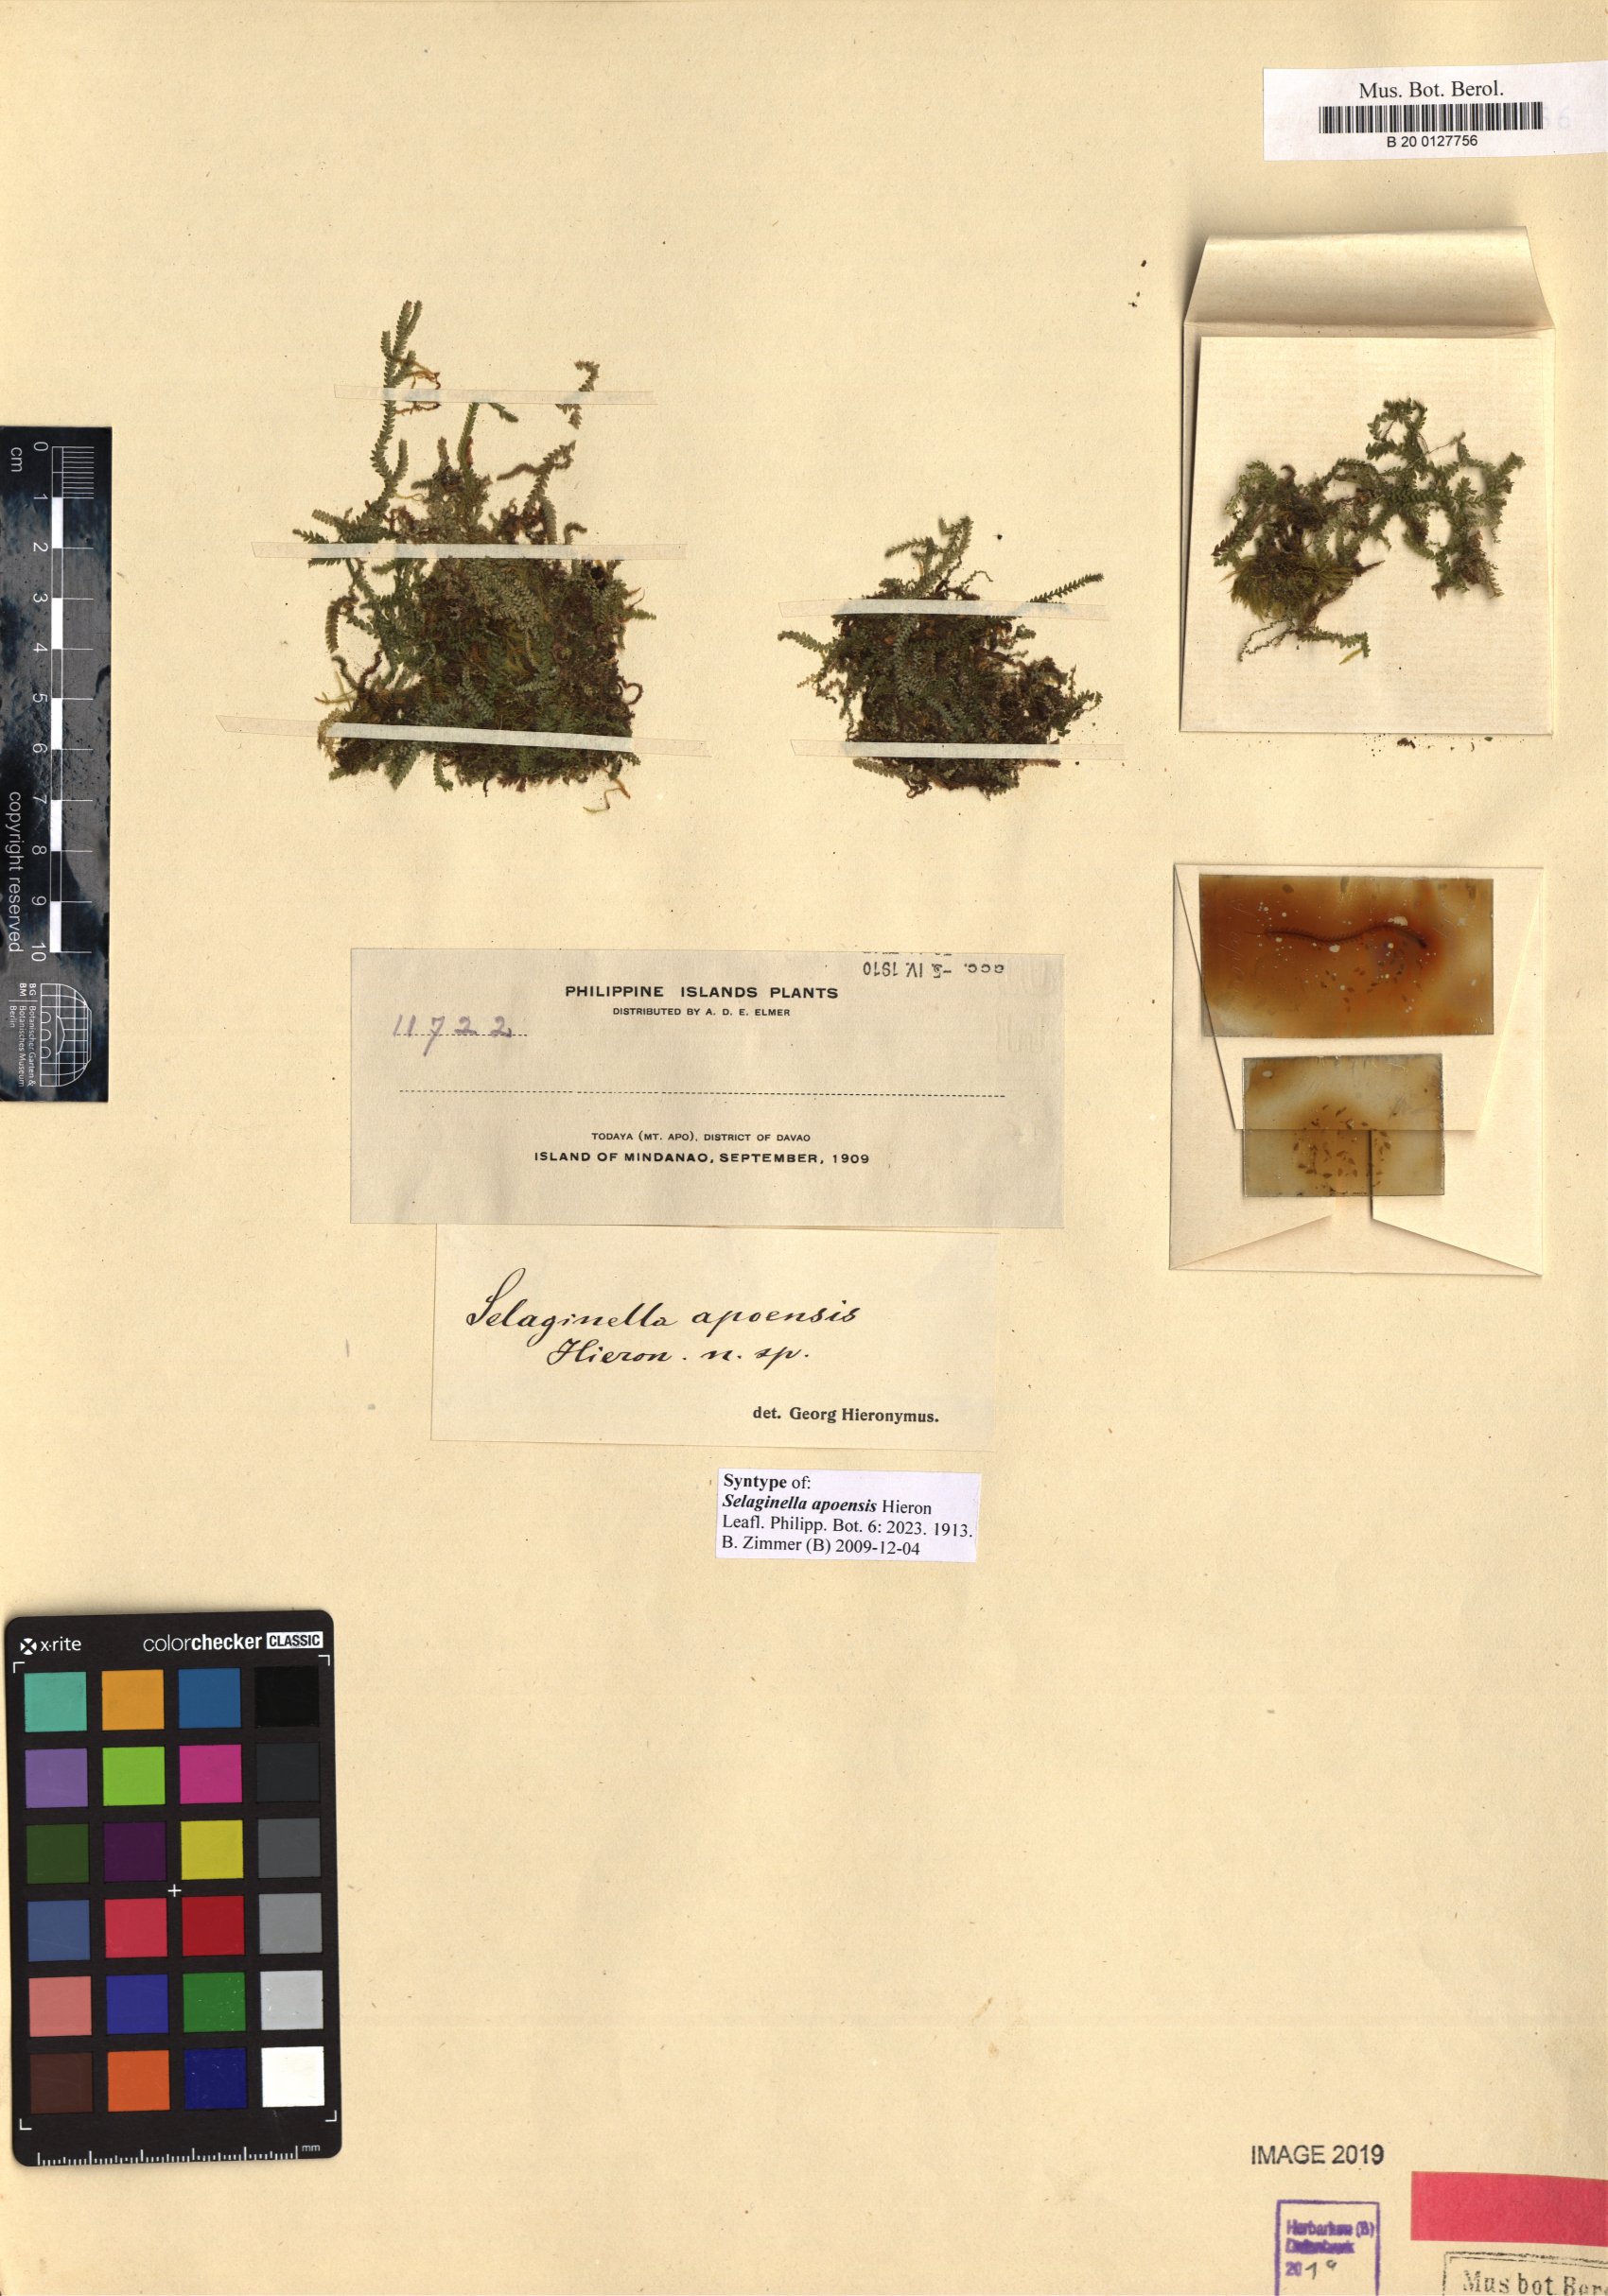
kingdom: Plantae
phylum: Tracheophyta
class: Lycopodiopsida
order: Selaginellales
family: Selaginellaceae
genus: Selaginella
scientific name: Selaginella apoensis
